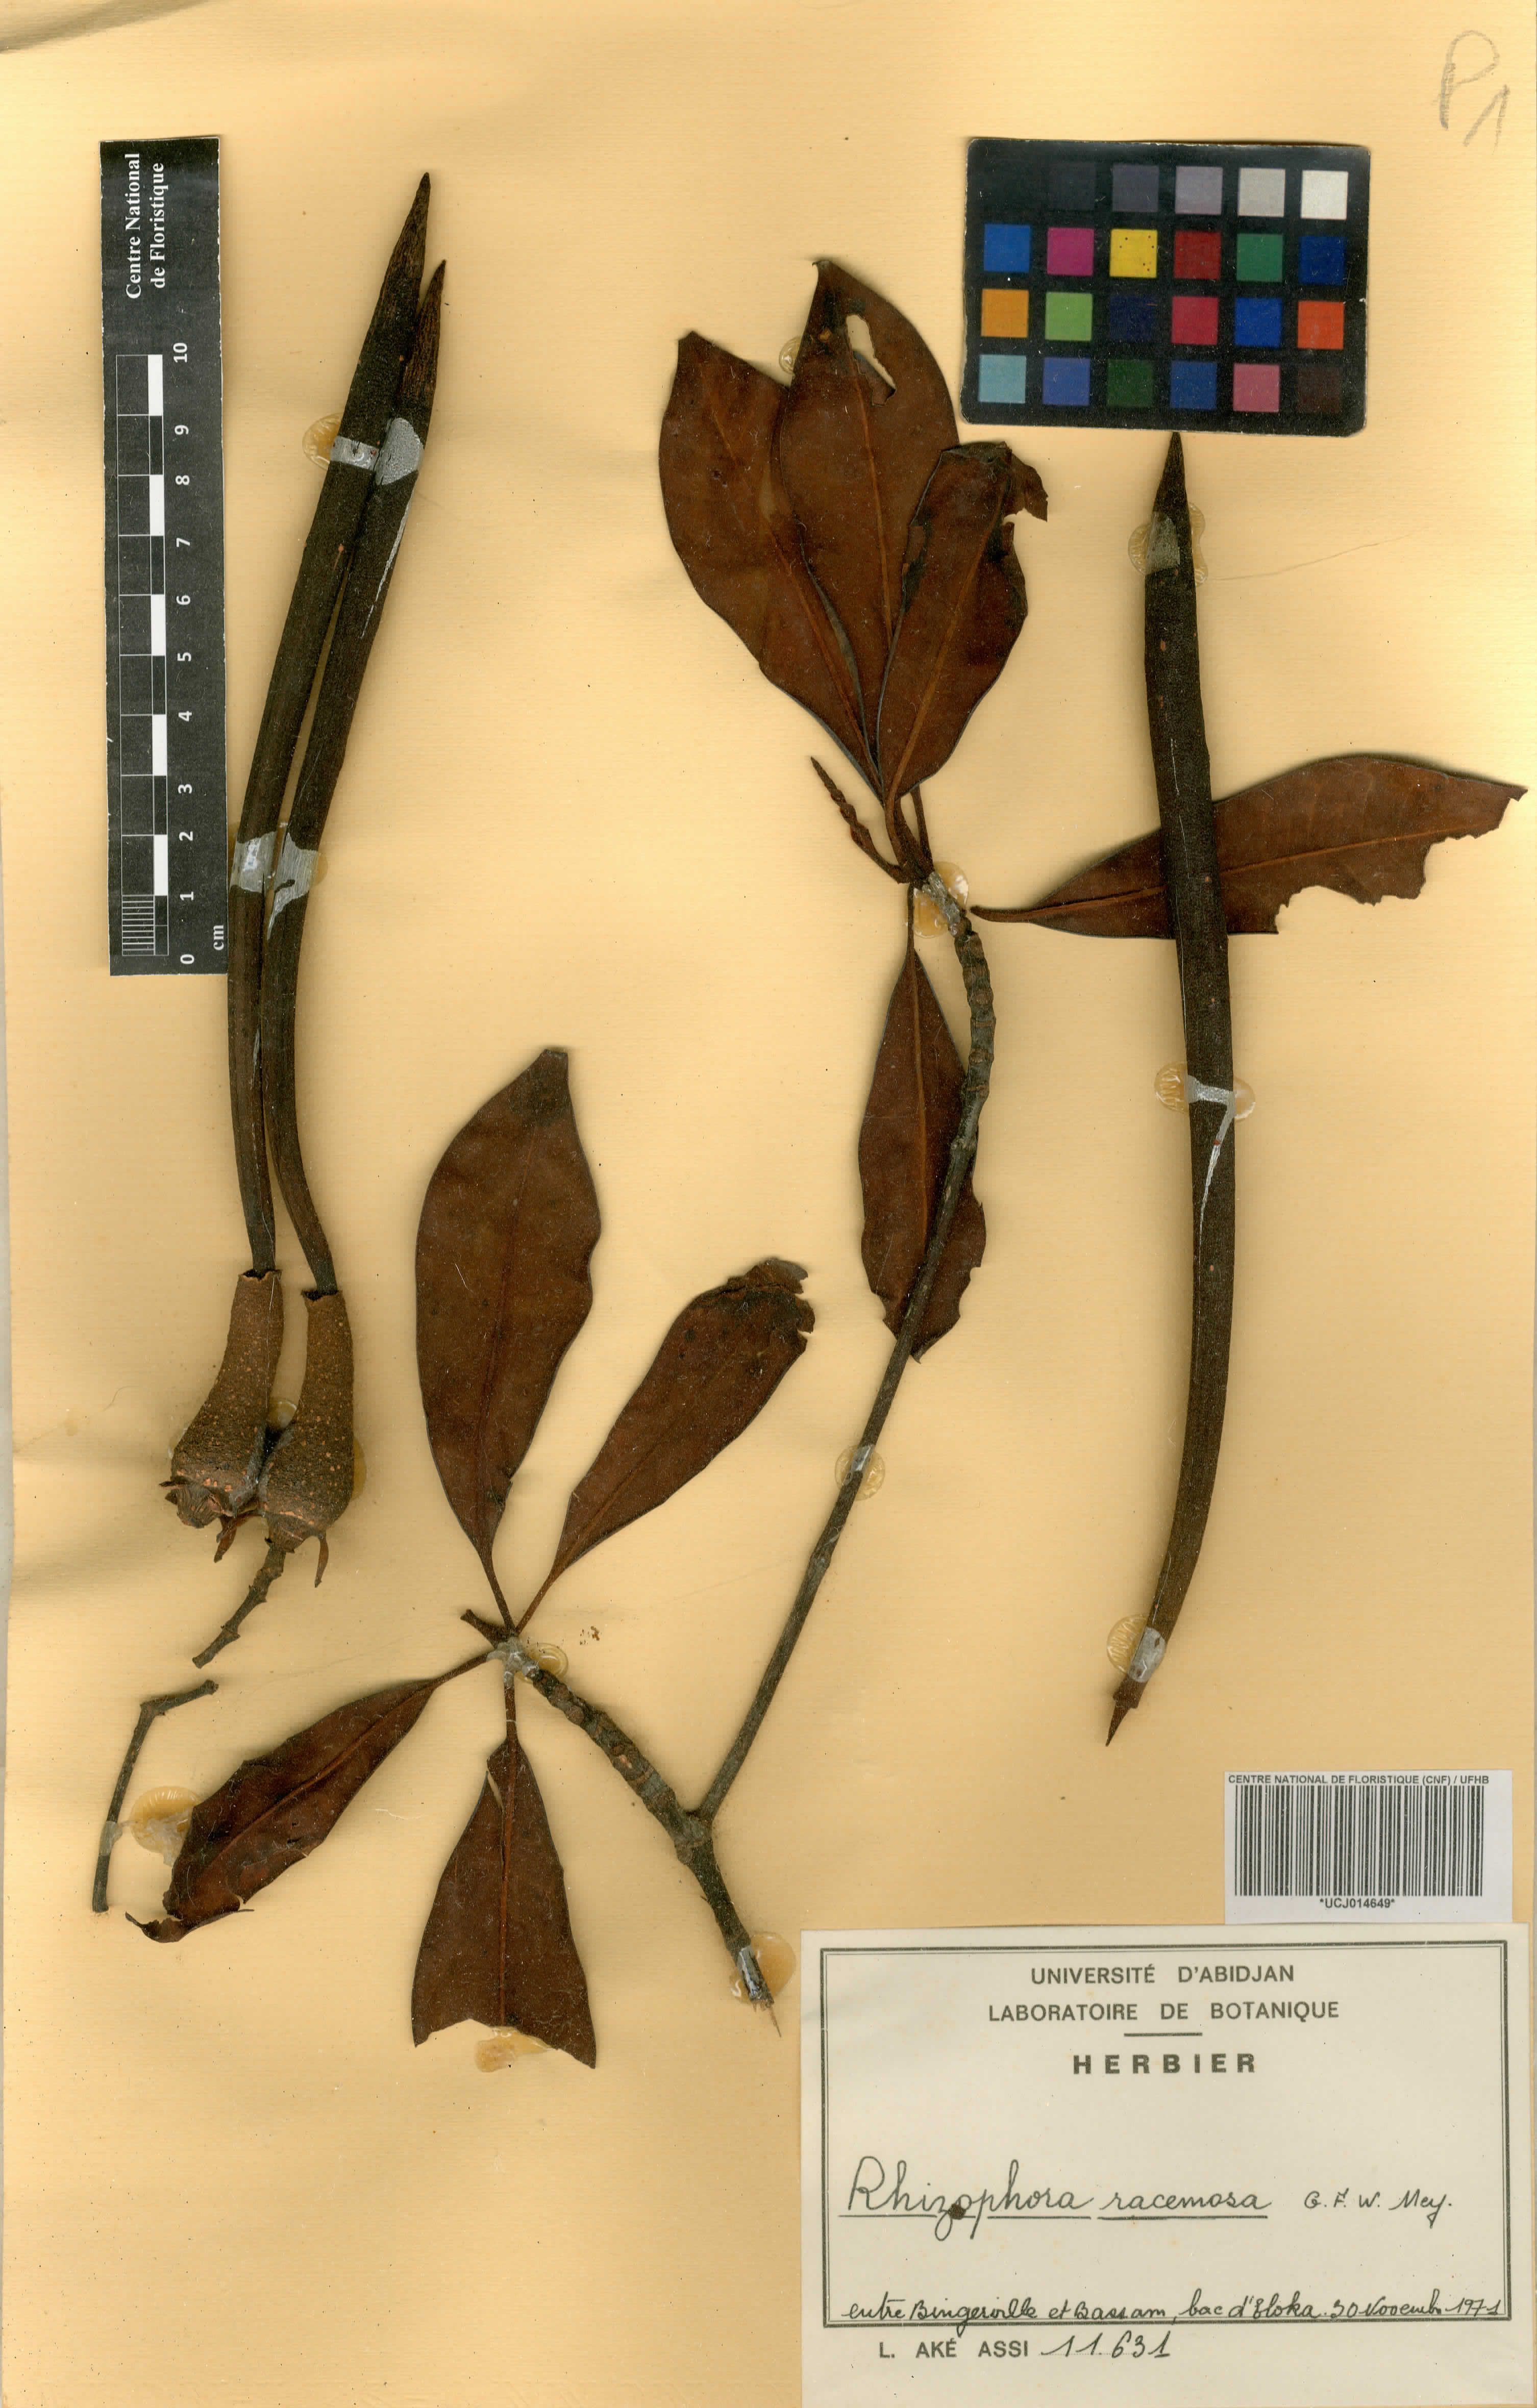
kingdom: Plantae
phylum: Tracheophyta
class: Magnoliopsida
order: Malpighiales
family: Rhizophoraceae
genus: Rhizophora
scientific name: Rhizophora racemosa
